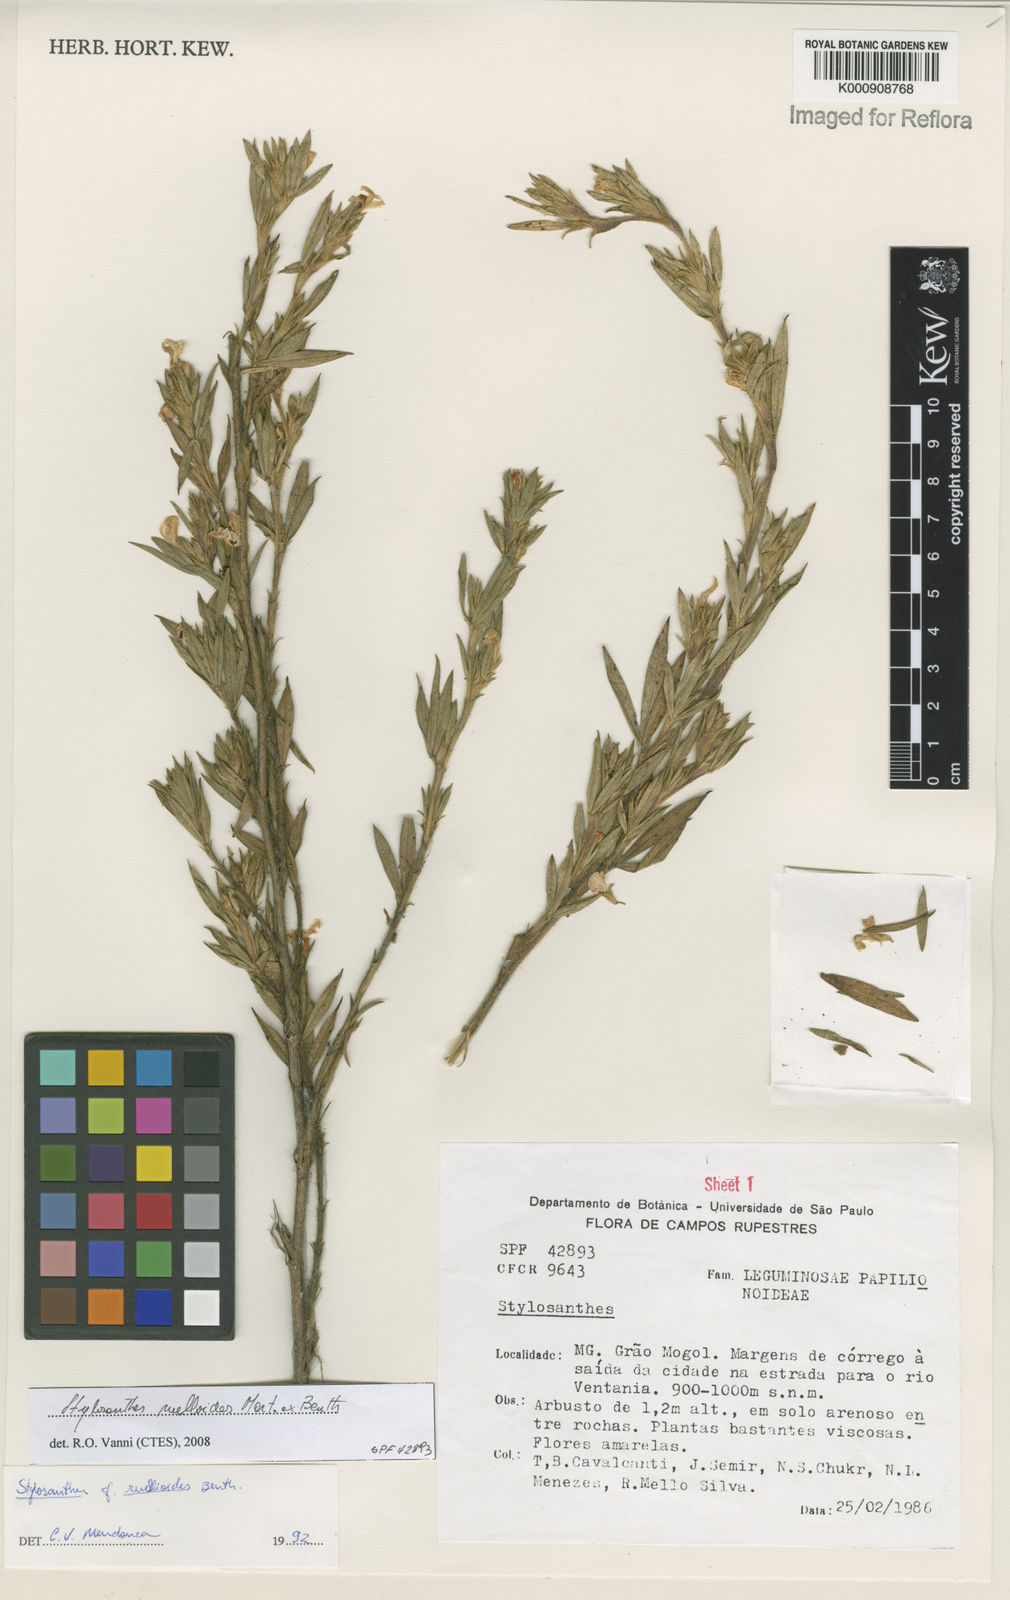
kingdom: Plantae
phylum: Tracheophyta
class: Magnoliopsida
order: Fabales
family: Fabaceae
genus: Stylosanthes
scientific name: Stylosanthes ruellioides
